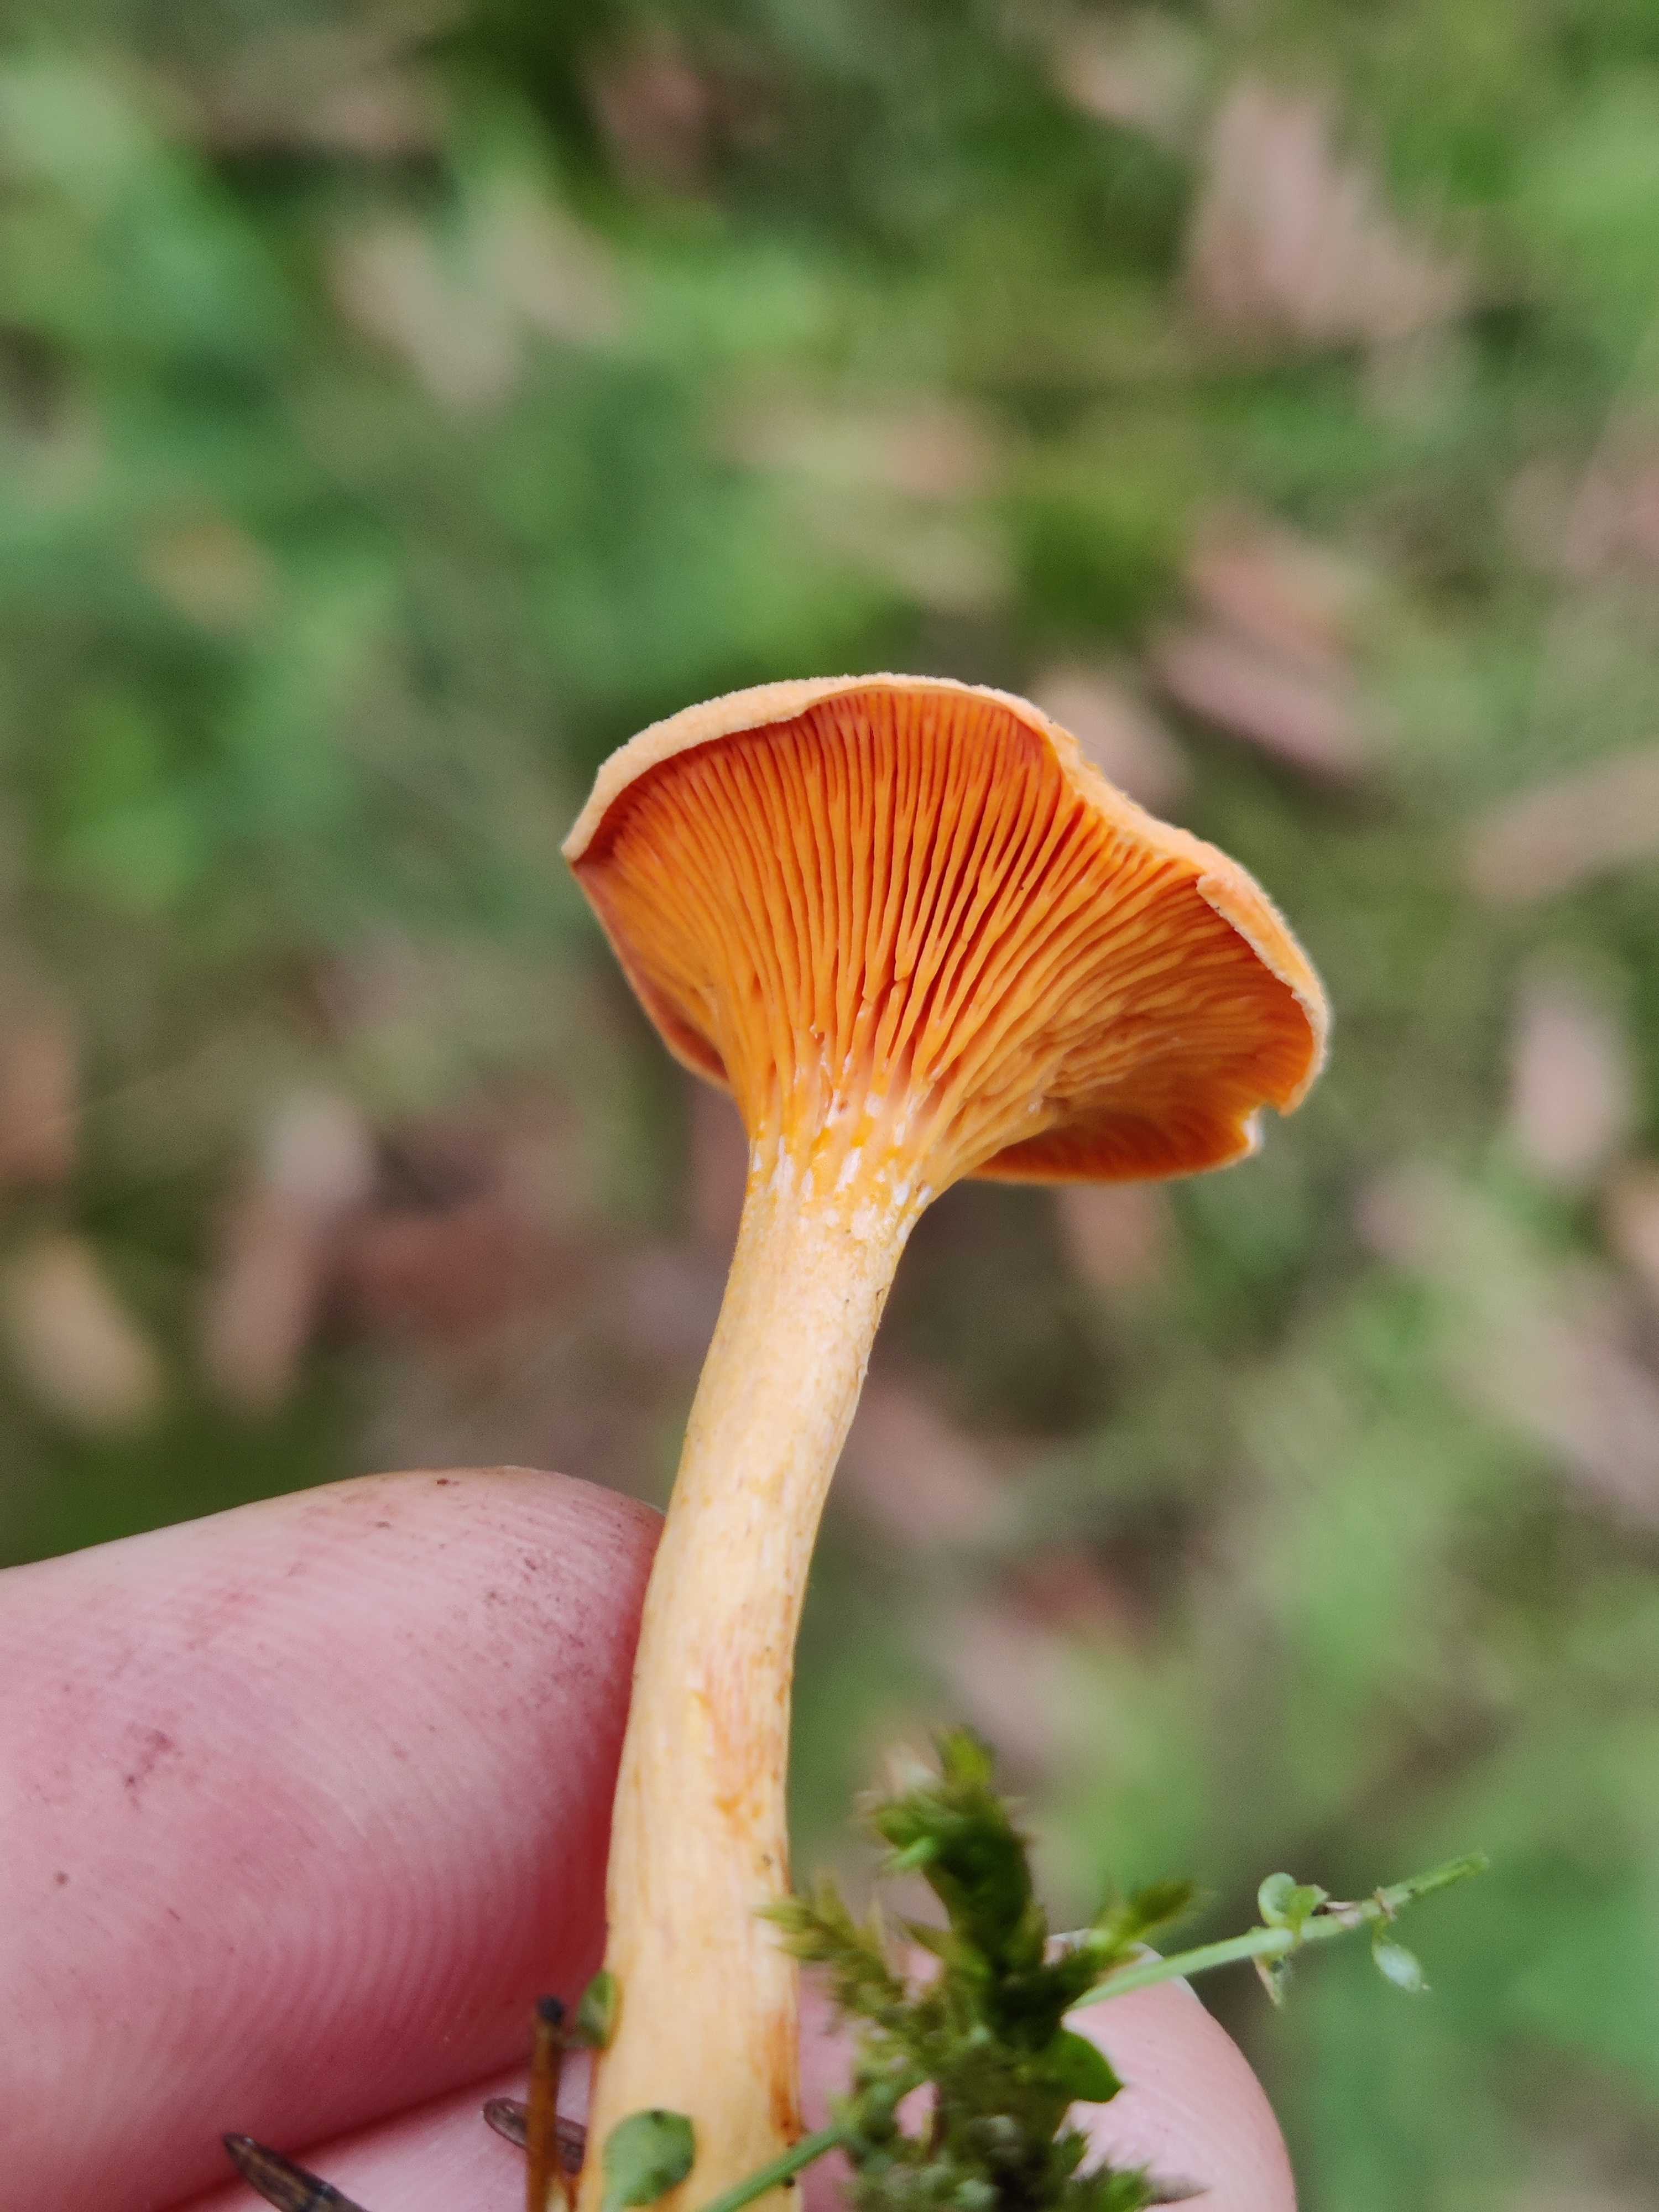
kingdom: Fungi
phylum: Basidiomycota
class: Agaricomycetes
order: Boletales
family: Hygrophoropsidaceae
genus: Hygrophoropsis
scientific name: Hygrophoropsis aurantiaca
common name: almindelig orangekantarel
